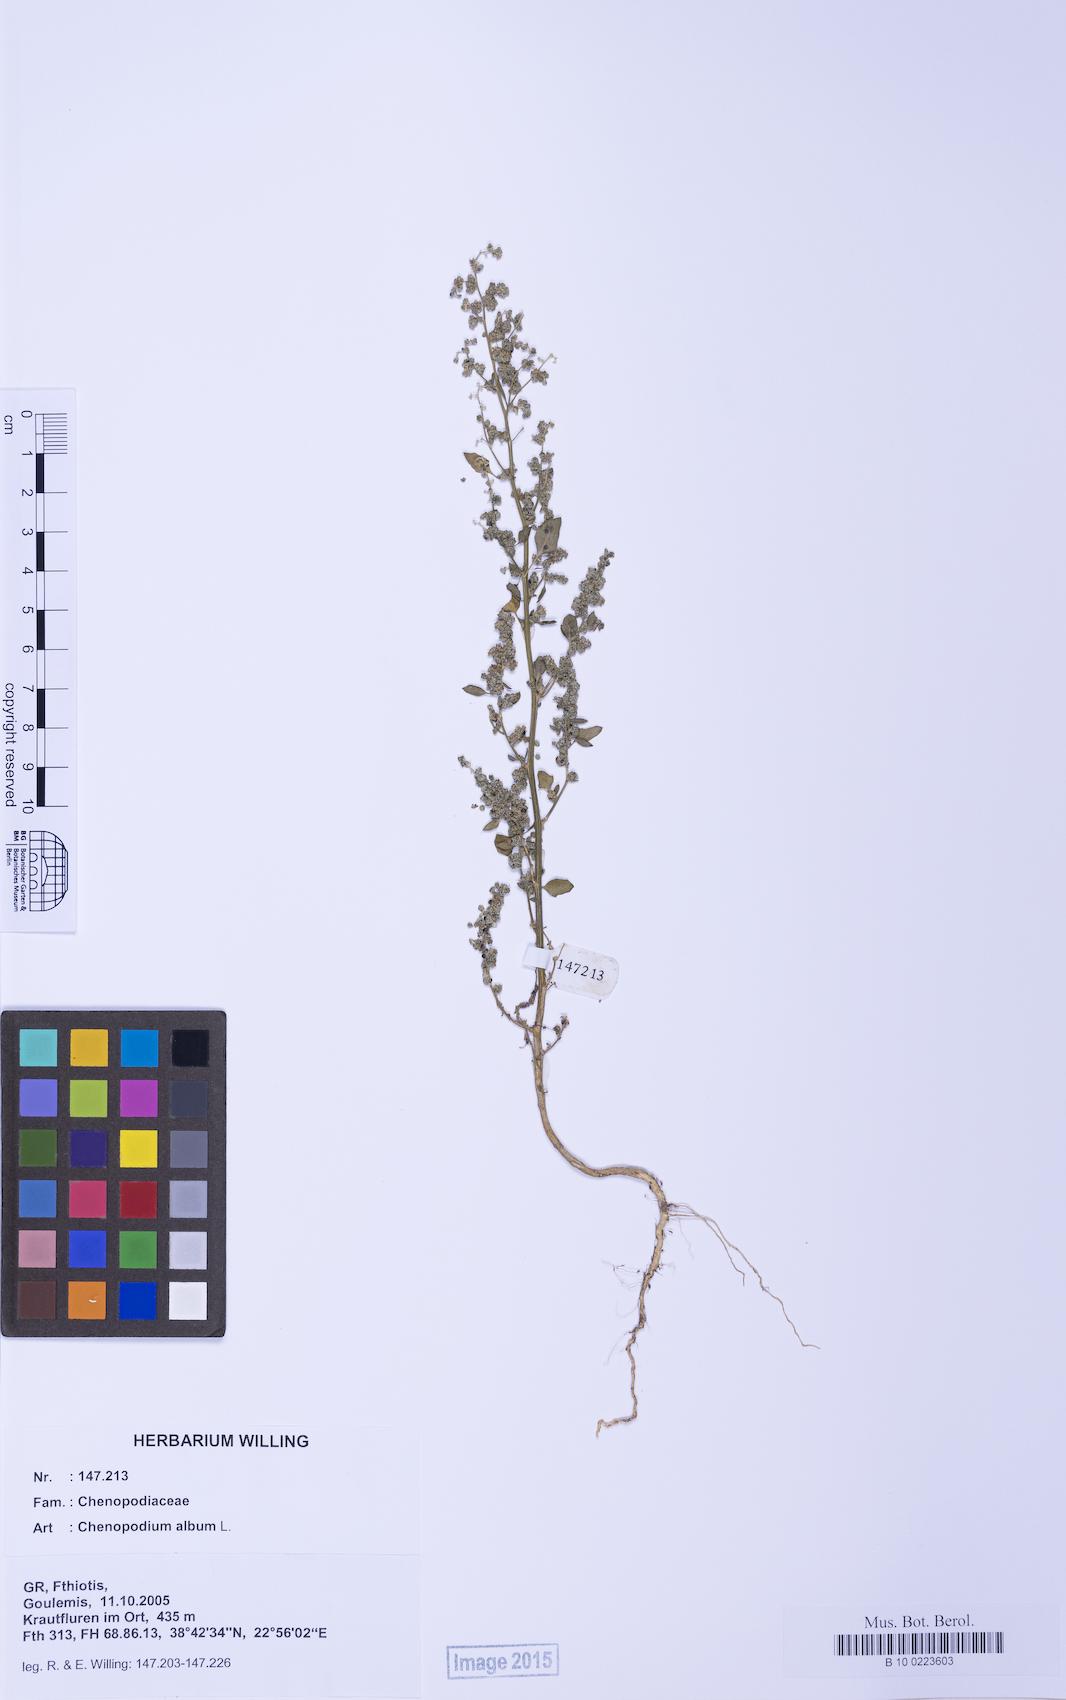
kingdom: Plantae
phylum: Tracheophyta
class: Magnoliopsida
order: Caryophyllales
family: Amaranthaceae
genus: Chenopodium
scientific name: Chenopodium album
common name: Fat-hen
